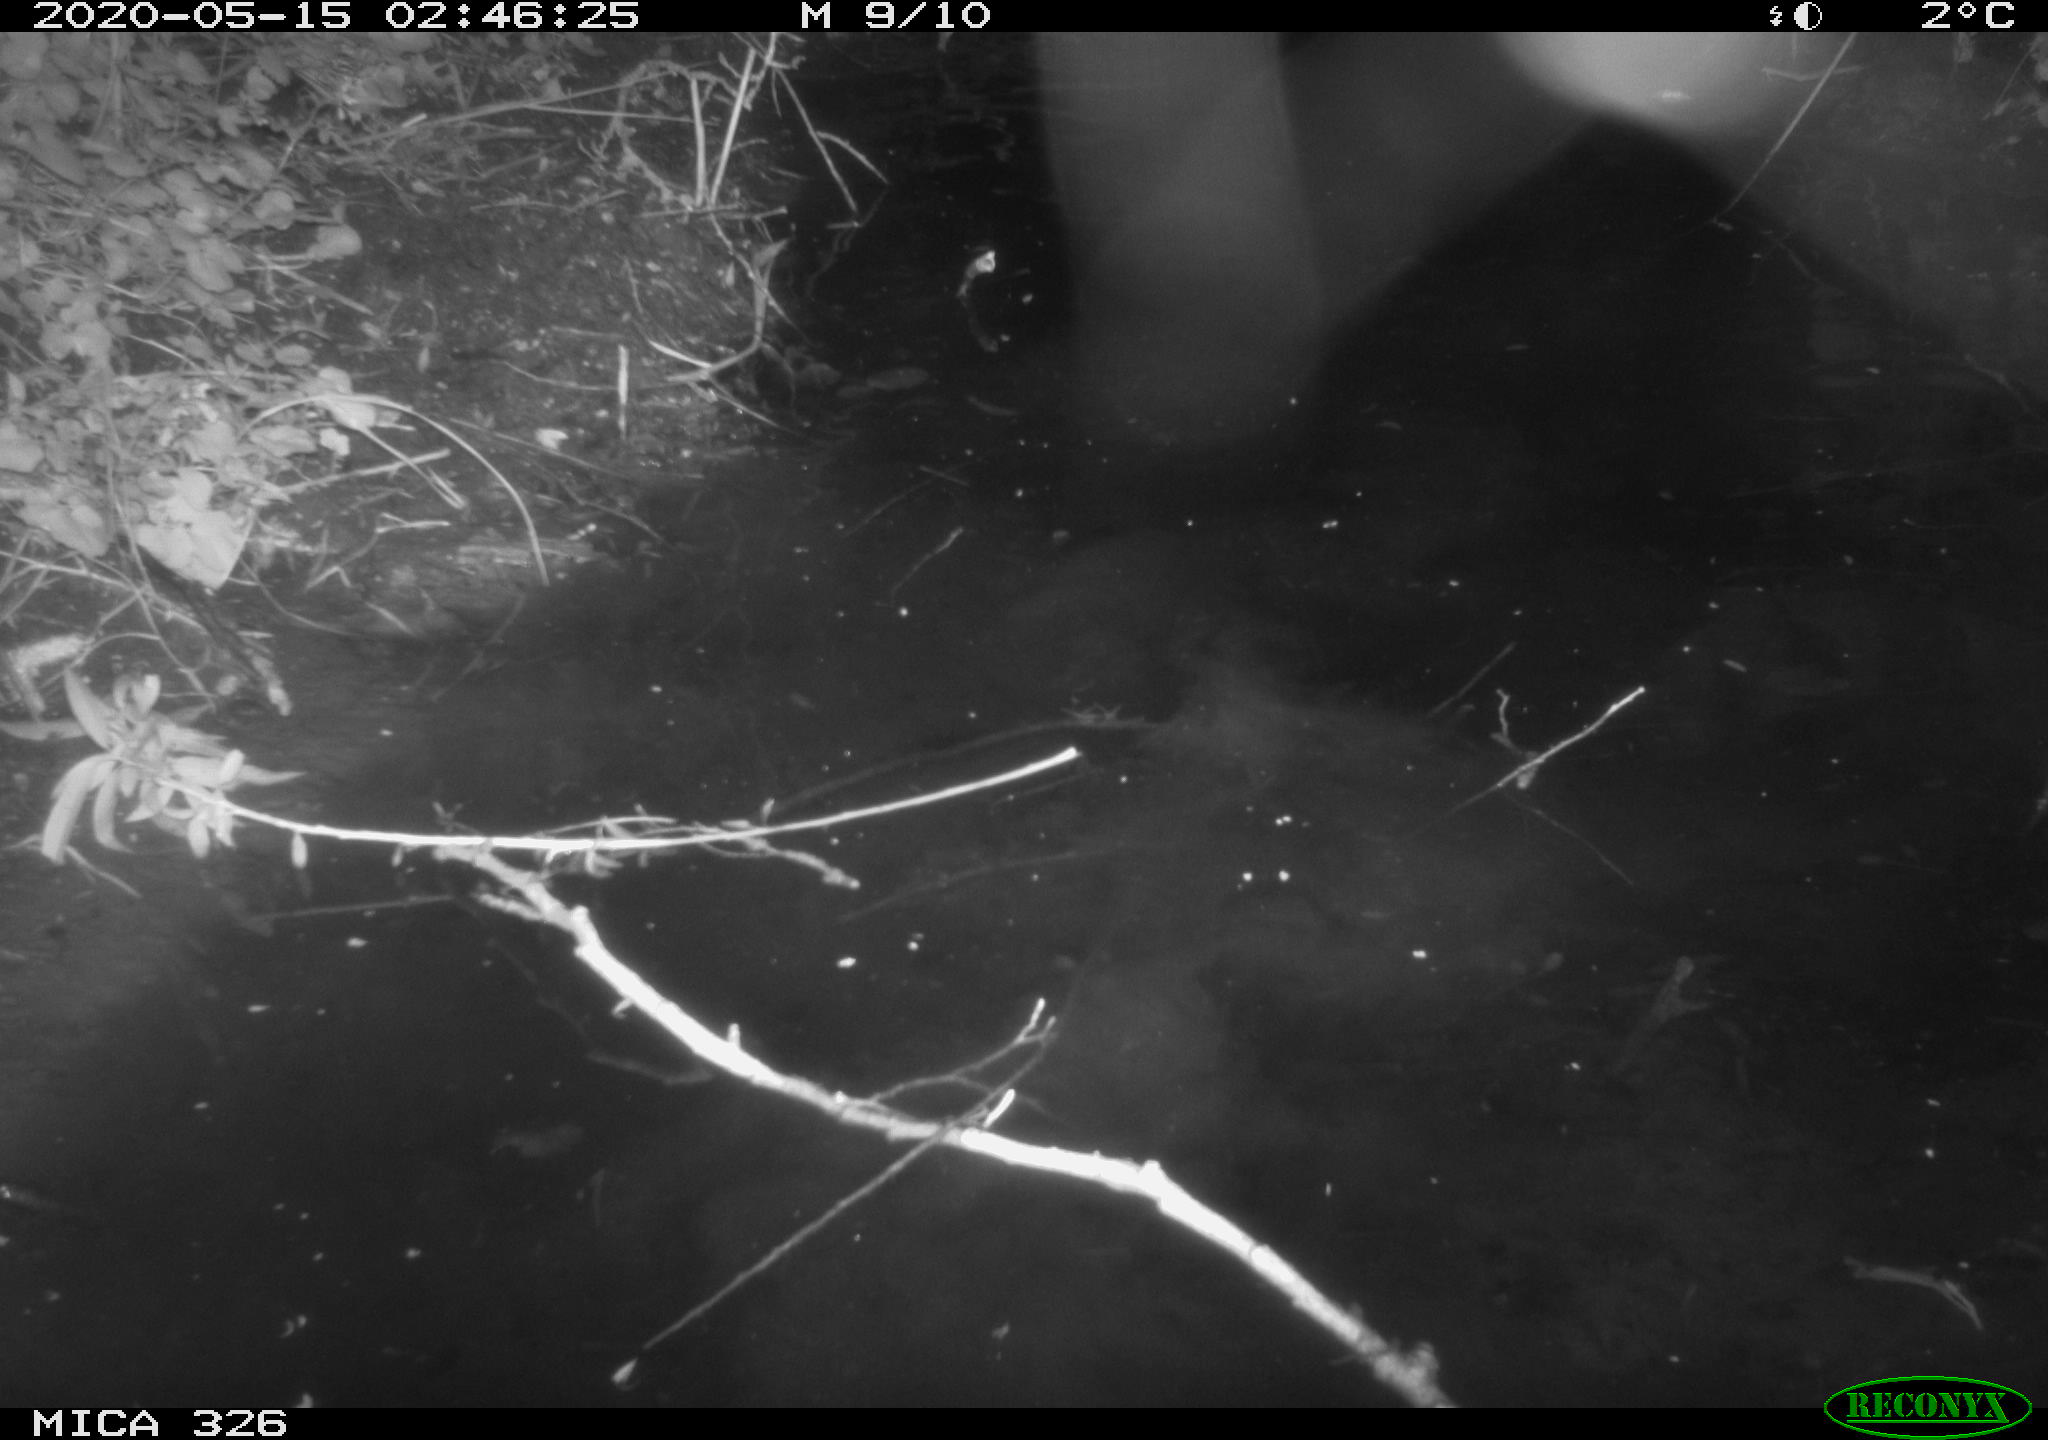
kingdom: Animalia
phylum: Chordata
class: Mammalia
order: Rodentia
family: Myocastoridae
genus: Myocastor
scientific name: Myocastor coypus
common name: Coypu
